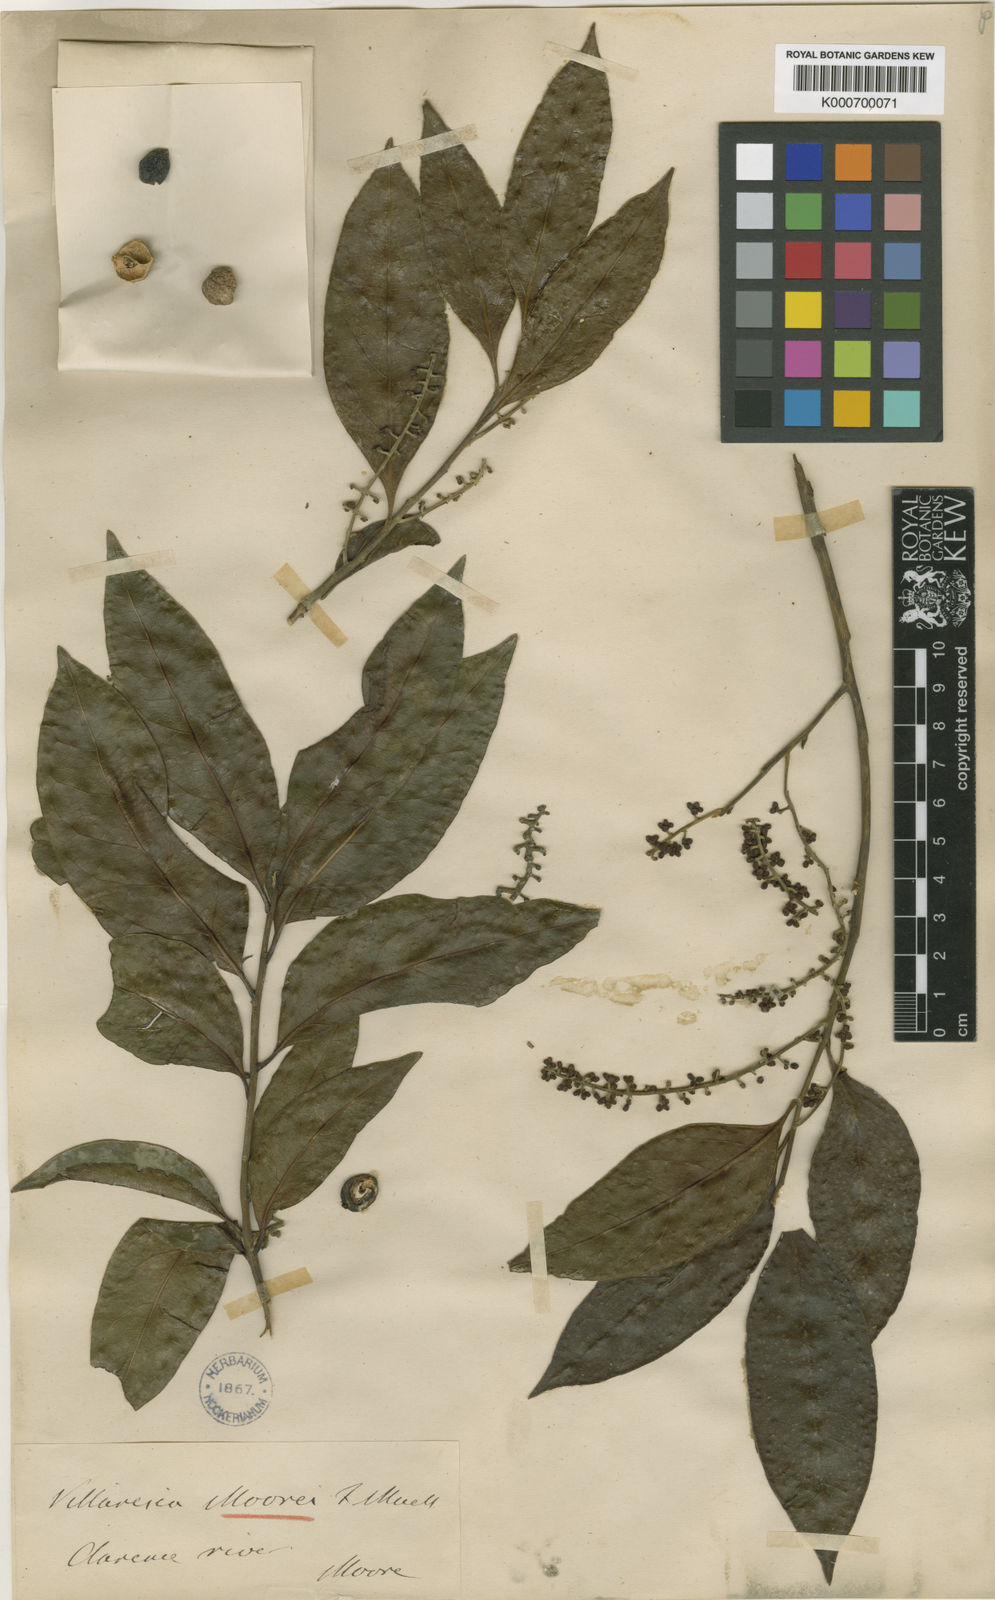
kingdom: Plantae
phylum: Tracheophyta
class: Magnoliopsida
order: Cardiopteridales
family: Cardiopteridaceae
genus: Citronella
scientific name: Citronella moorei
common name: Churnwood
